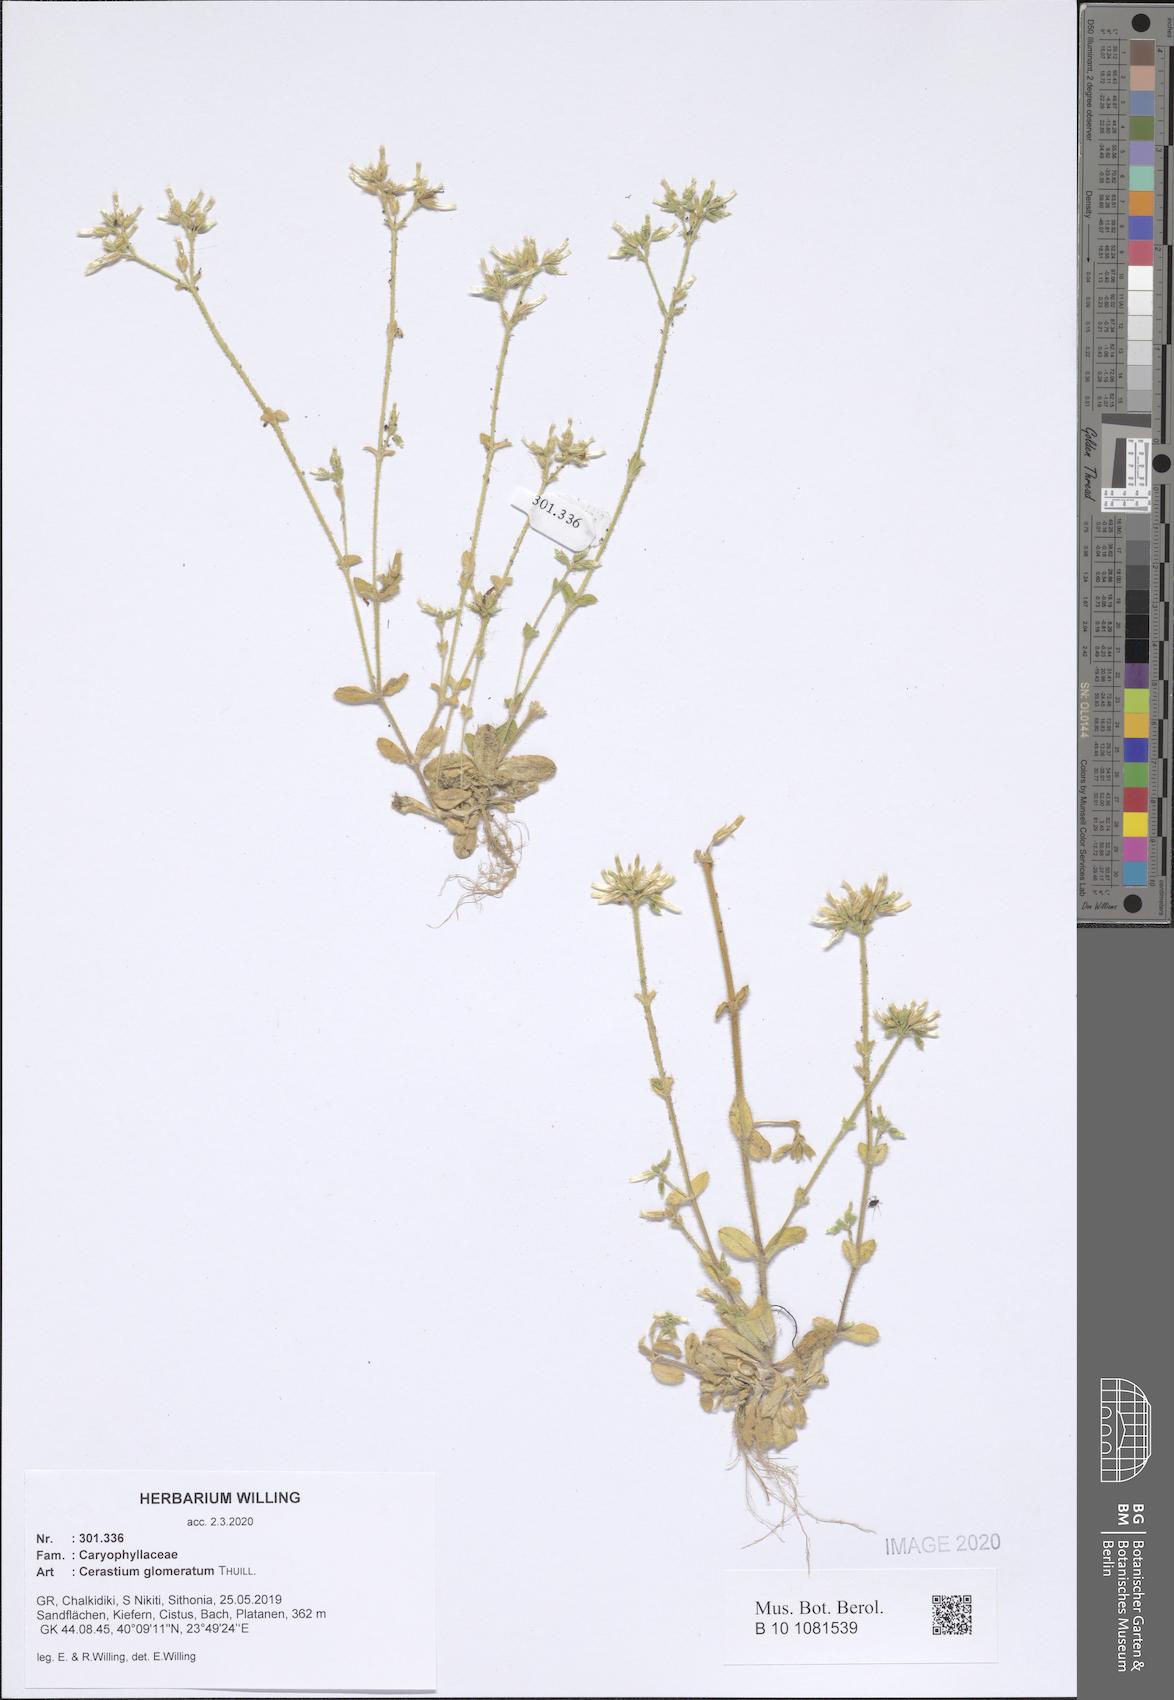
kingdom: Plantae
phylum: Tracheophyta
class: Magnoliopsida
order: Caryophyllales
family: Caryophyllaceae
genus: Cerastium
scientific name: Cerastium glomeratum
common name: Sticky chickweed
